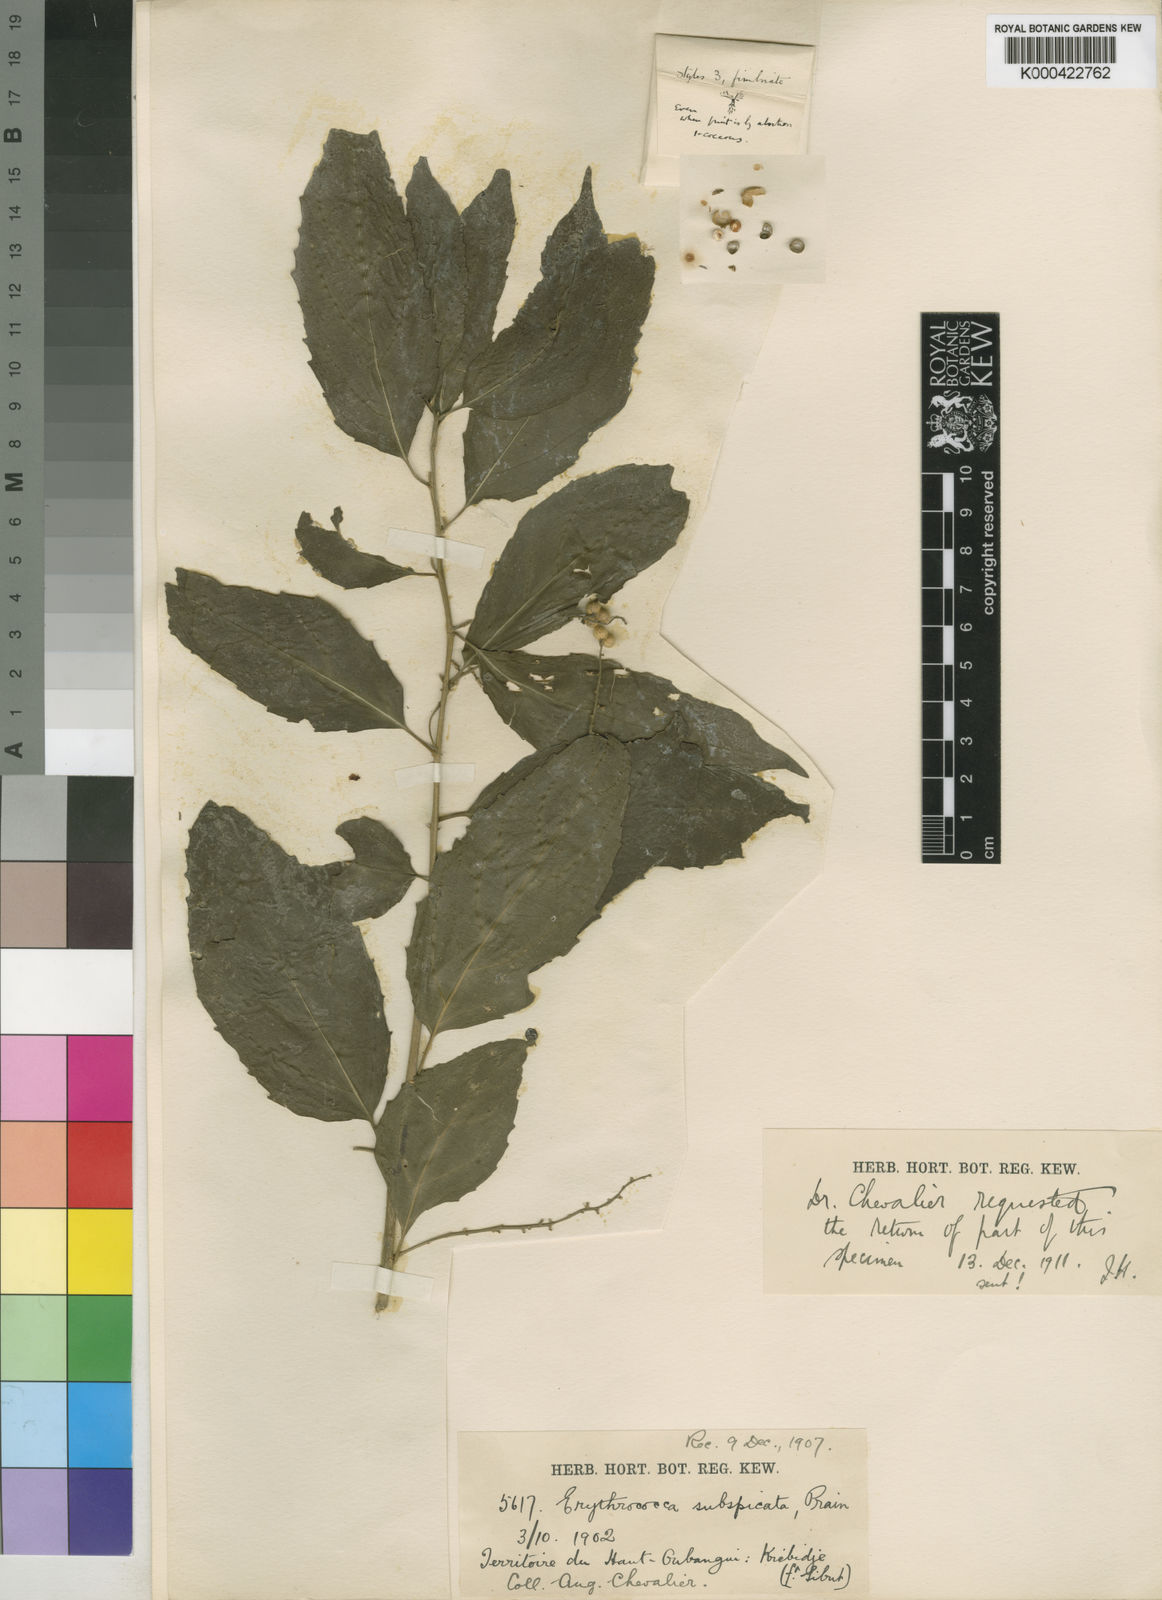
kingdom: Plantae
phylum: Tracheophyta
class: Magnoliopsida
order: Malpighiales
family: Euphorbiaceae
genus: Erythrococca
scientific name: Erythrococca subspicata
